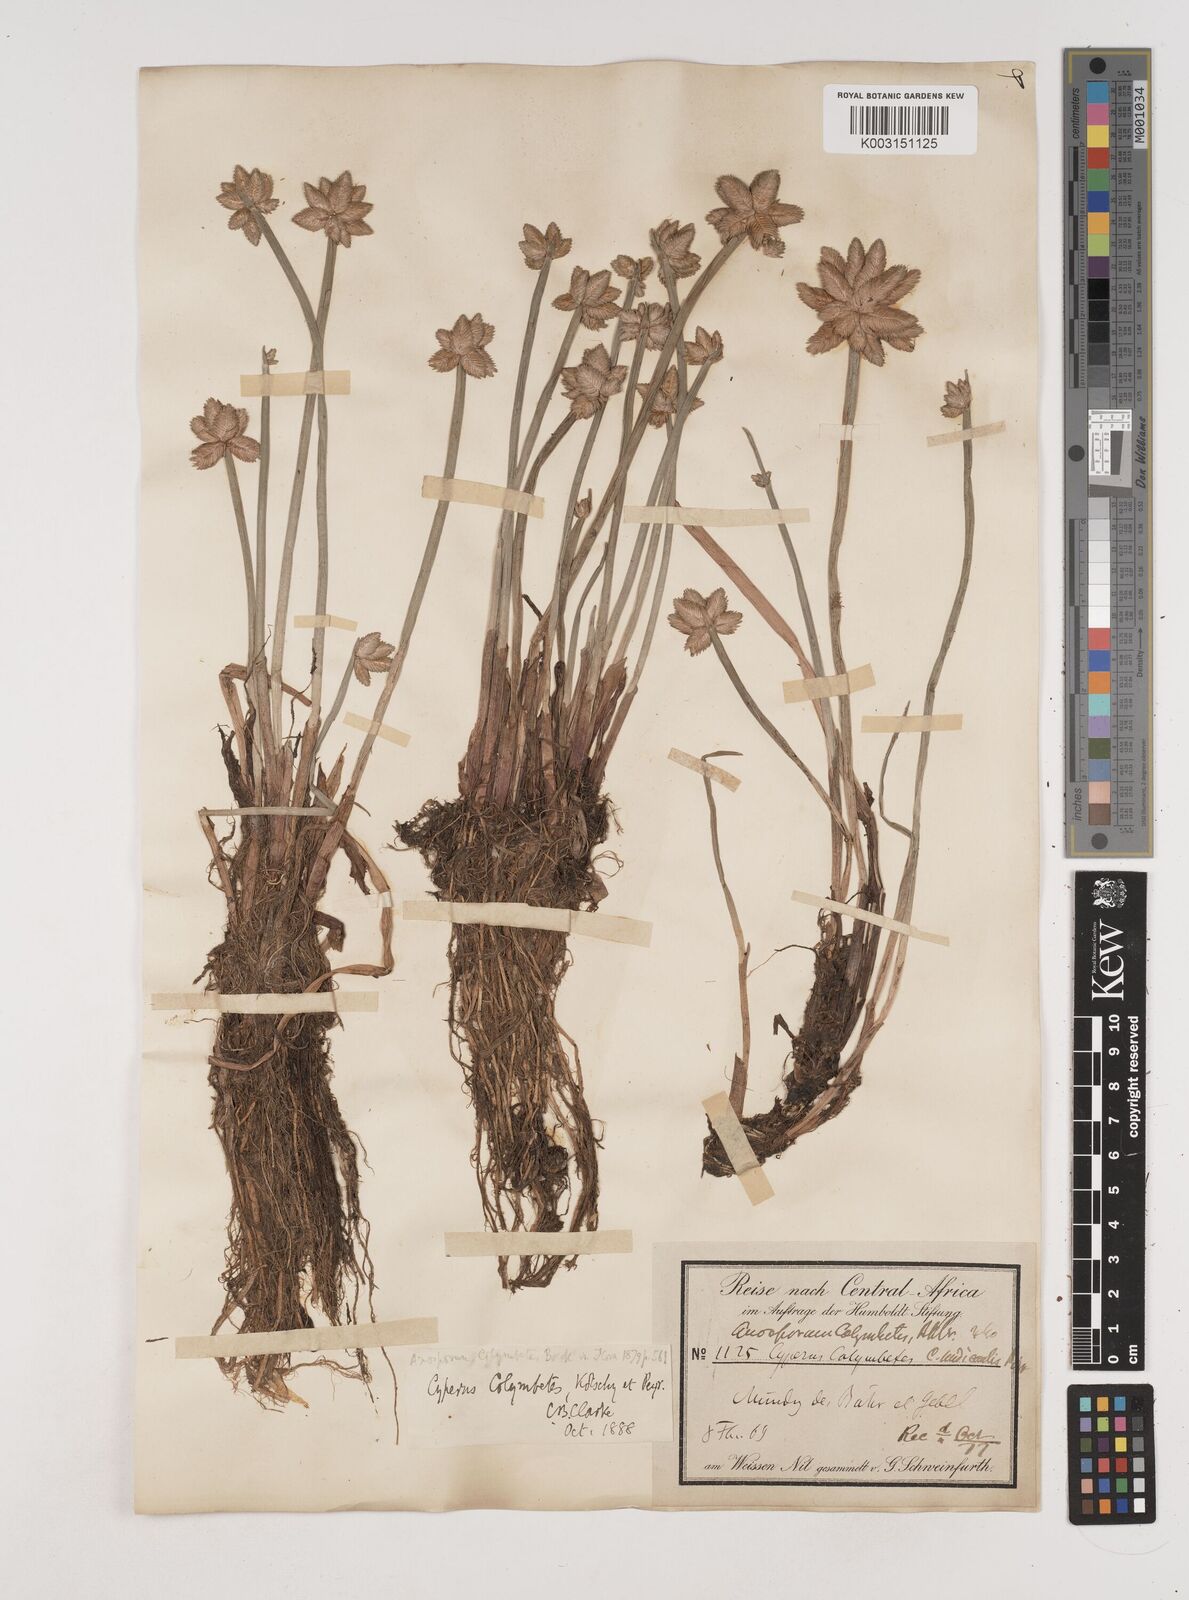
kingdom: Plantae
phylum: Tracheophyta
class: Liliopsida
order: Poales
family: Cyperaceae
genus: Cyperus
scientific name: Cyperus colymbetes
